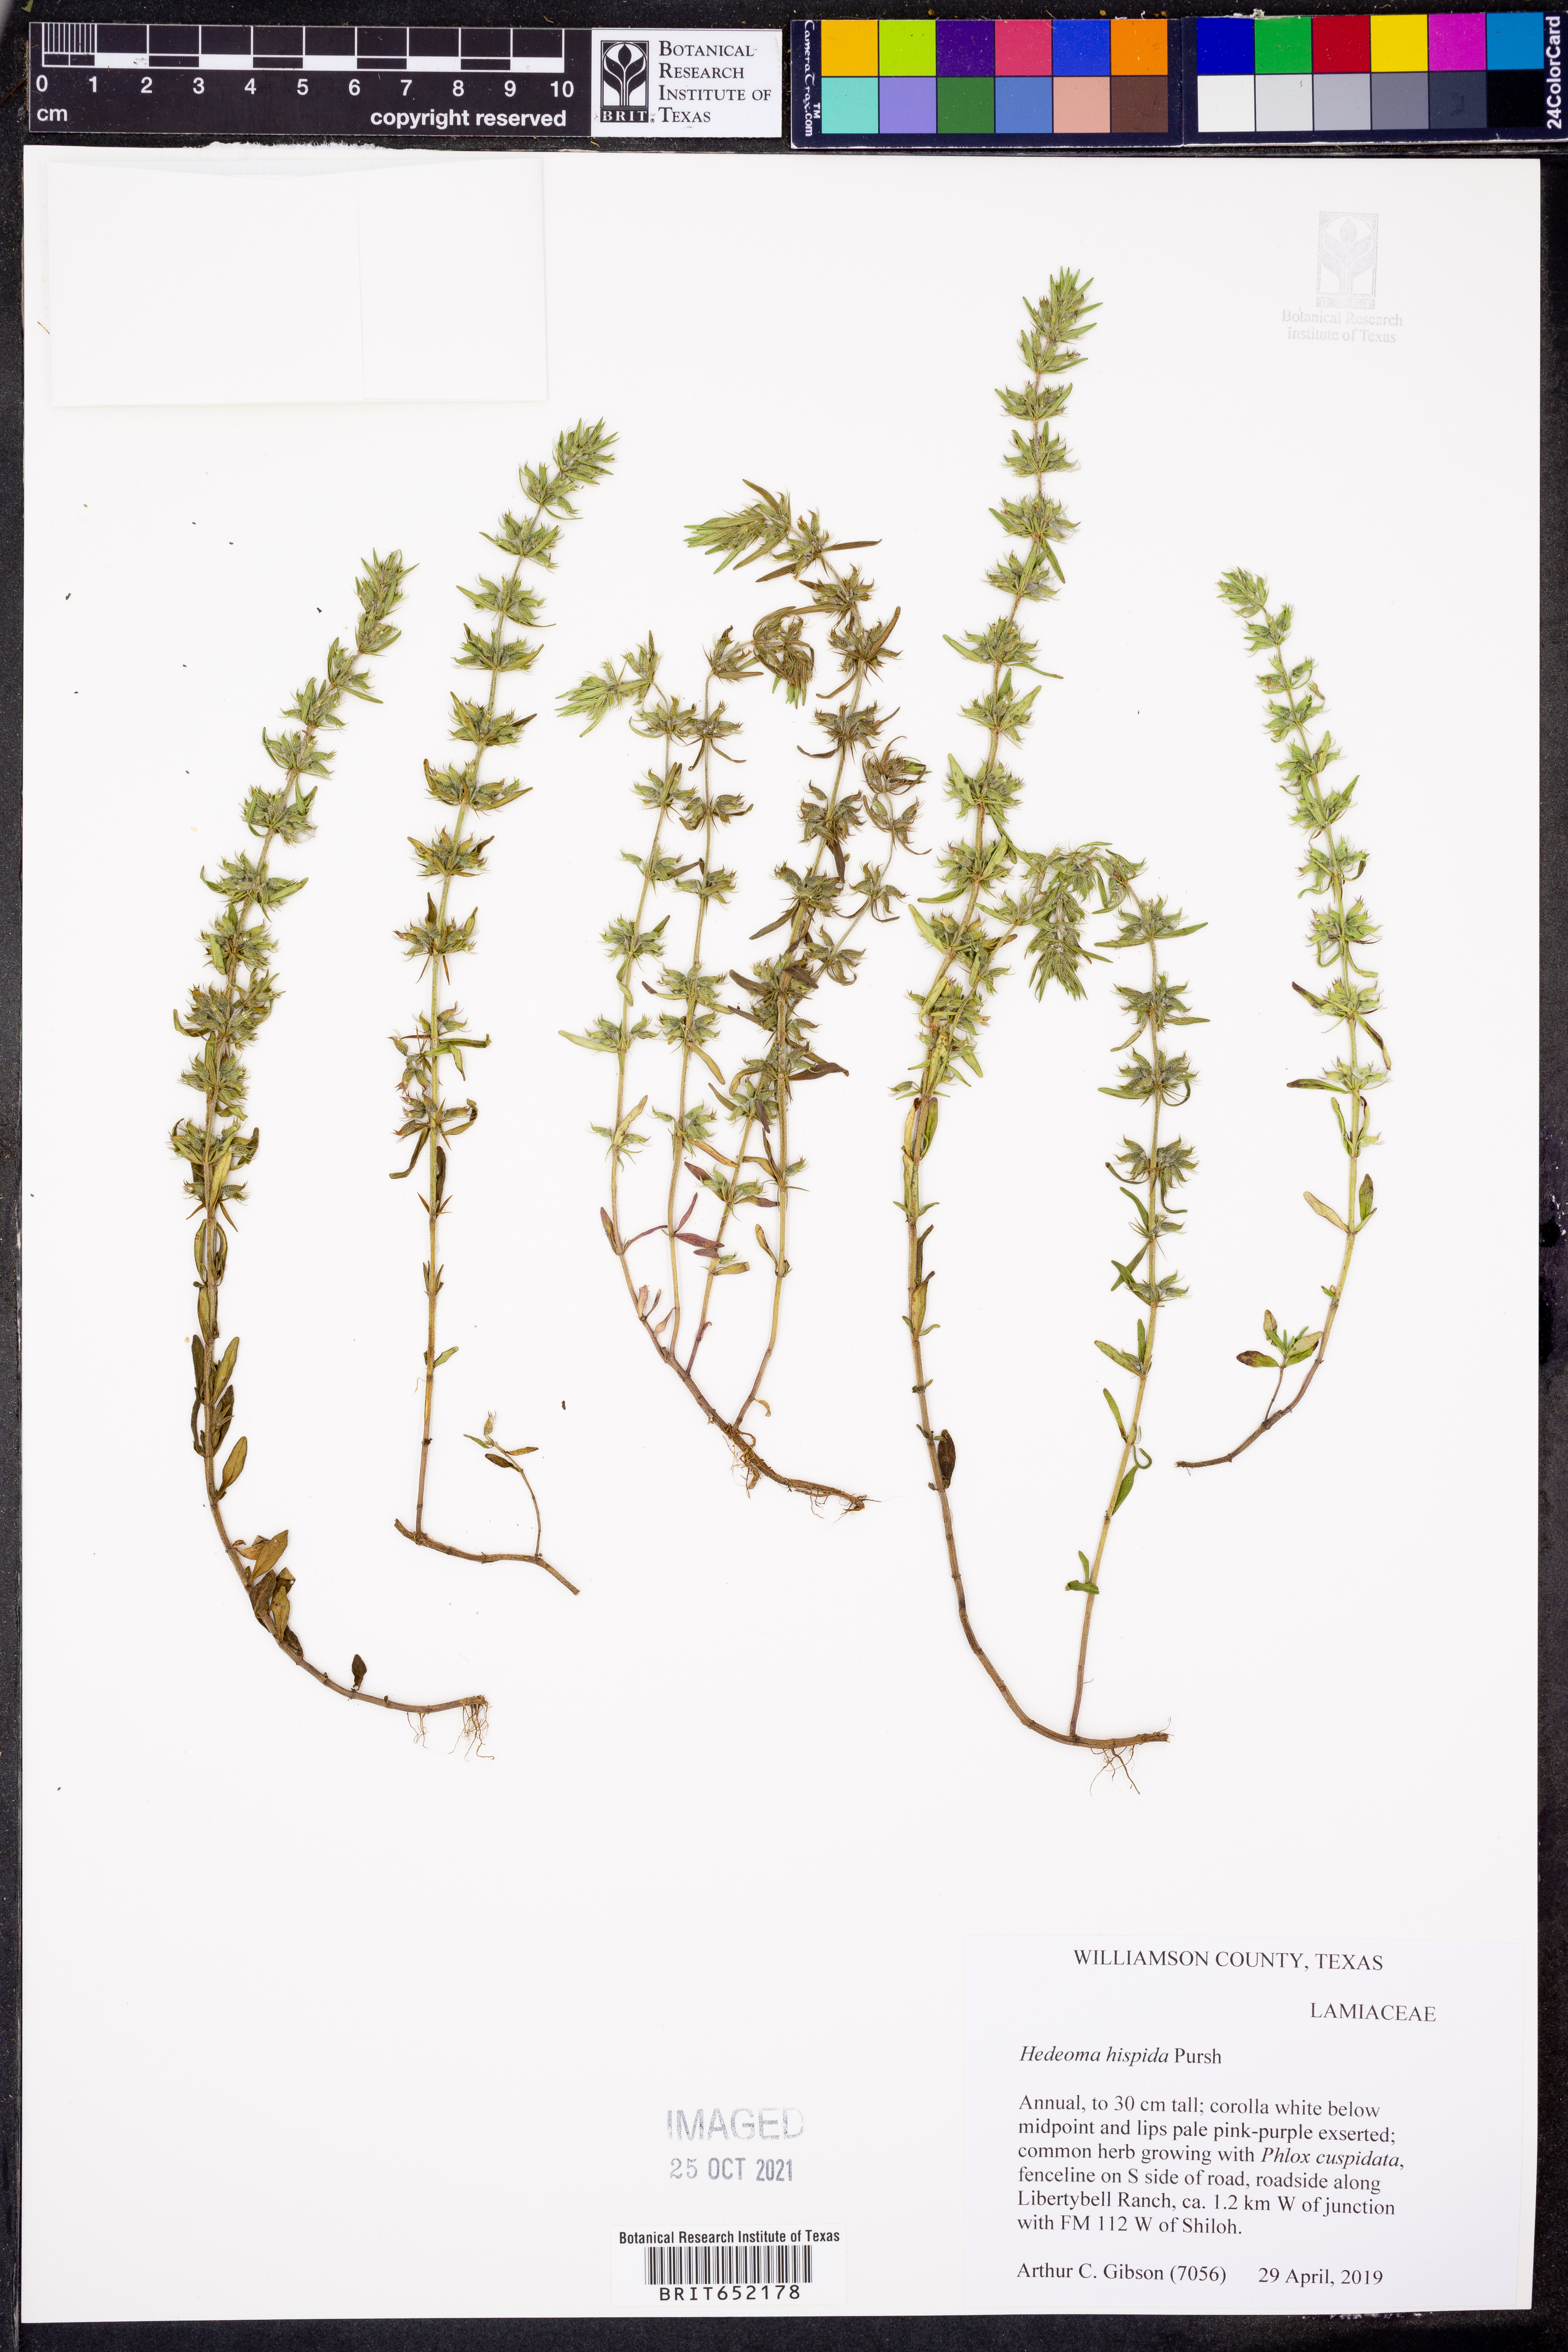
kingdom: Plantae
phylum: Tracheophyta
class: Magnoliopsida
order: Lamiales
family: Lamiaceae
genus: Hedeoma
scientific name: Hedeoma hispida
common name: Mock pennyroyal
